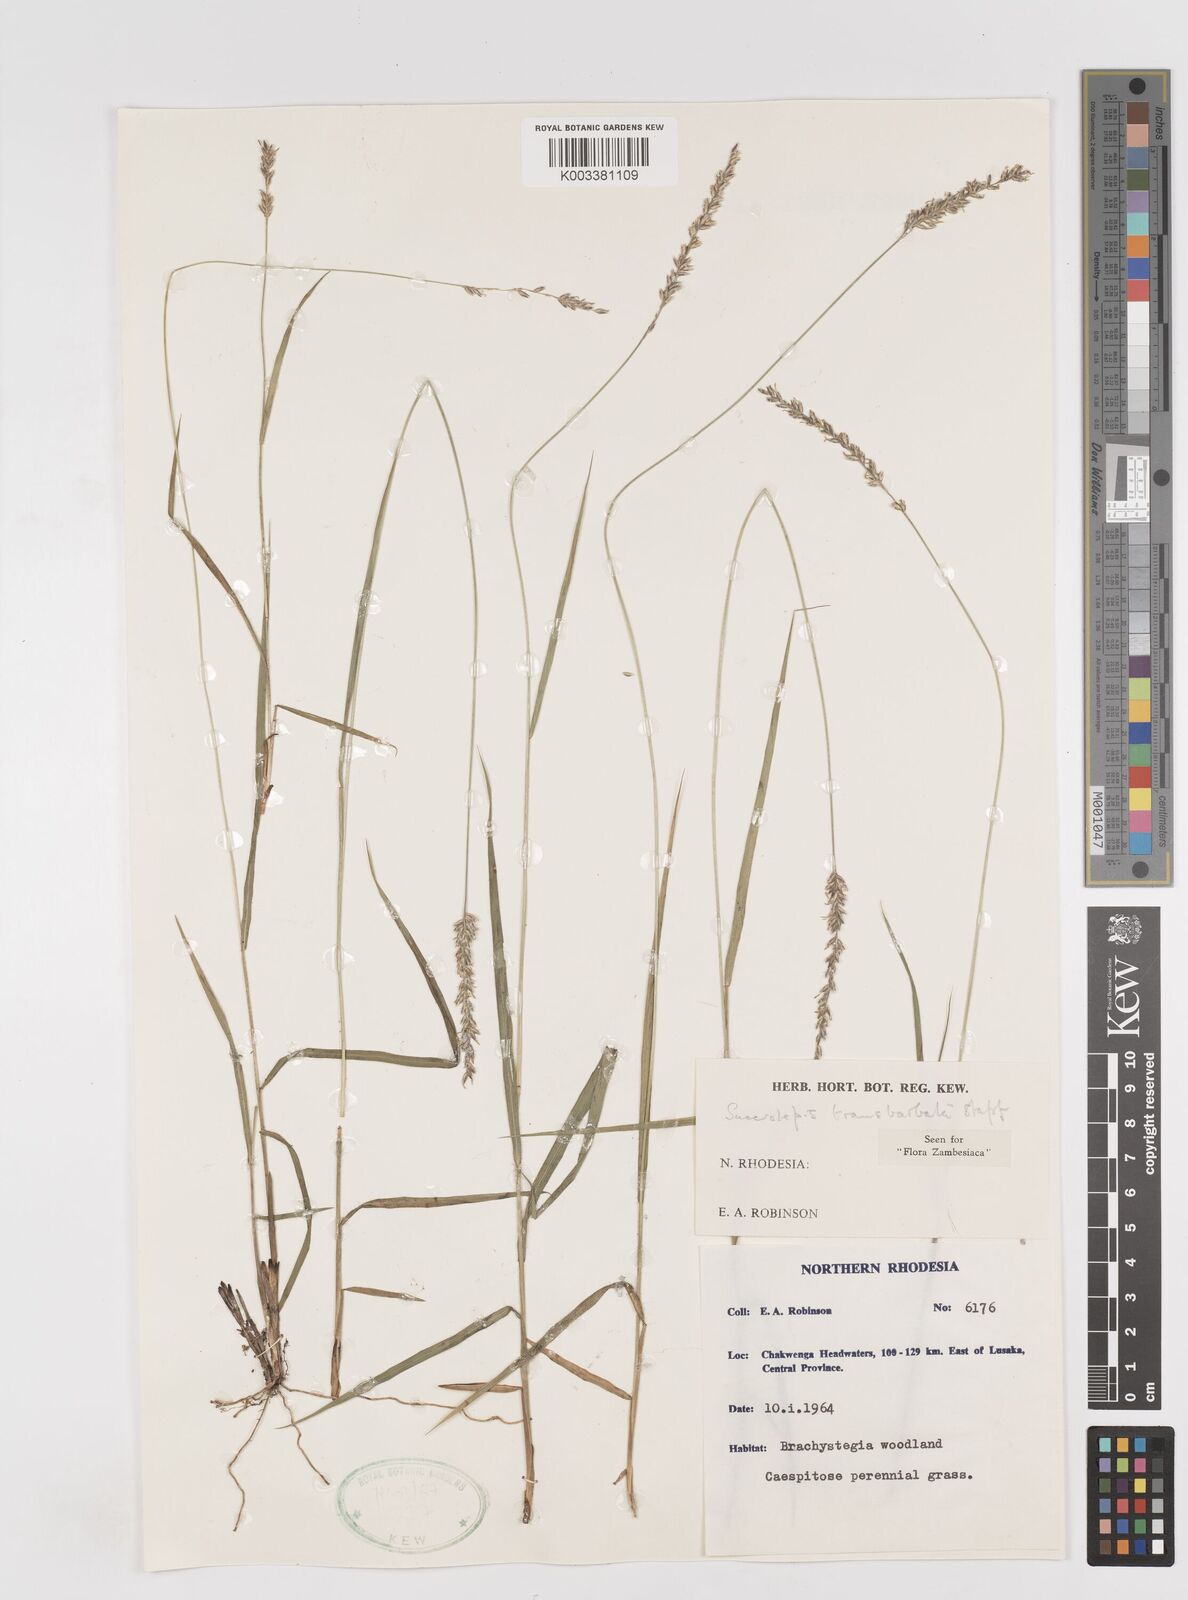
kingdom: Plantae
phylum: Tracheophyta
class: Liliopsida
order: Poales
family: Poaceae
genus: Sacciolepis
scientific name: Sacciolepis transbarbata
